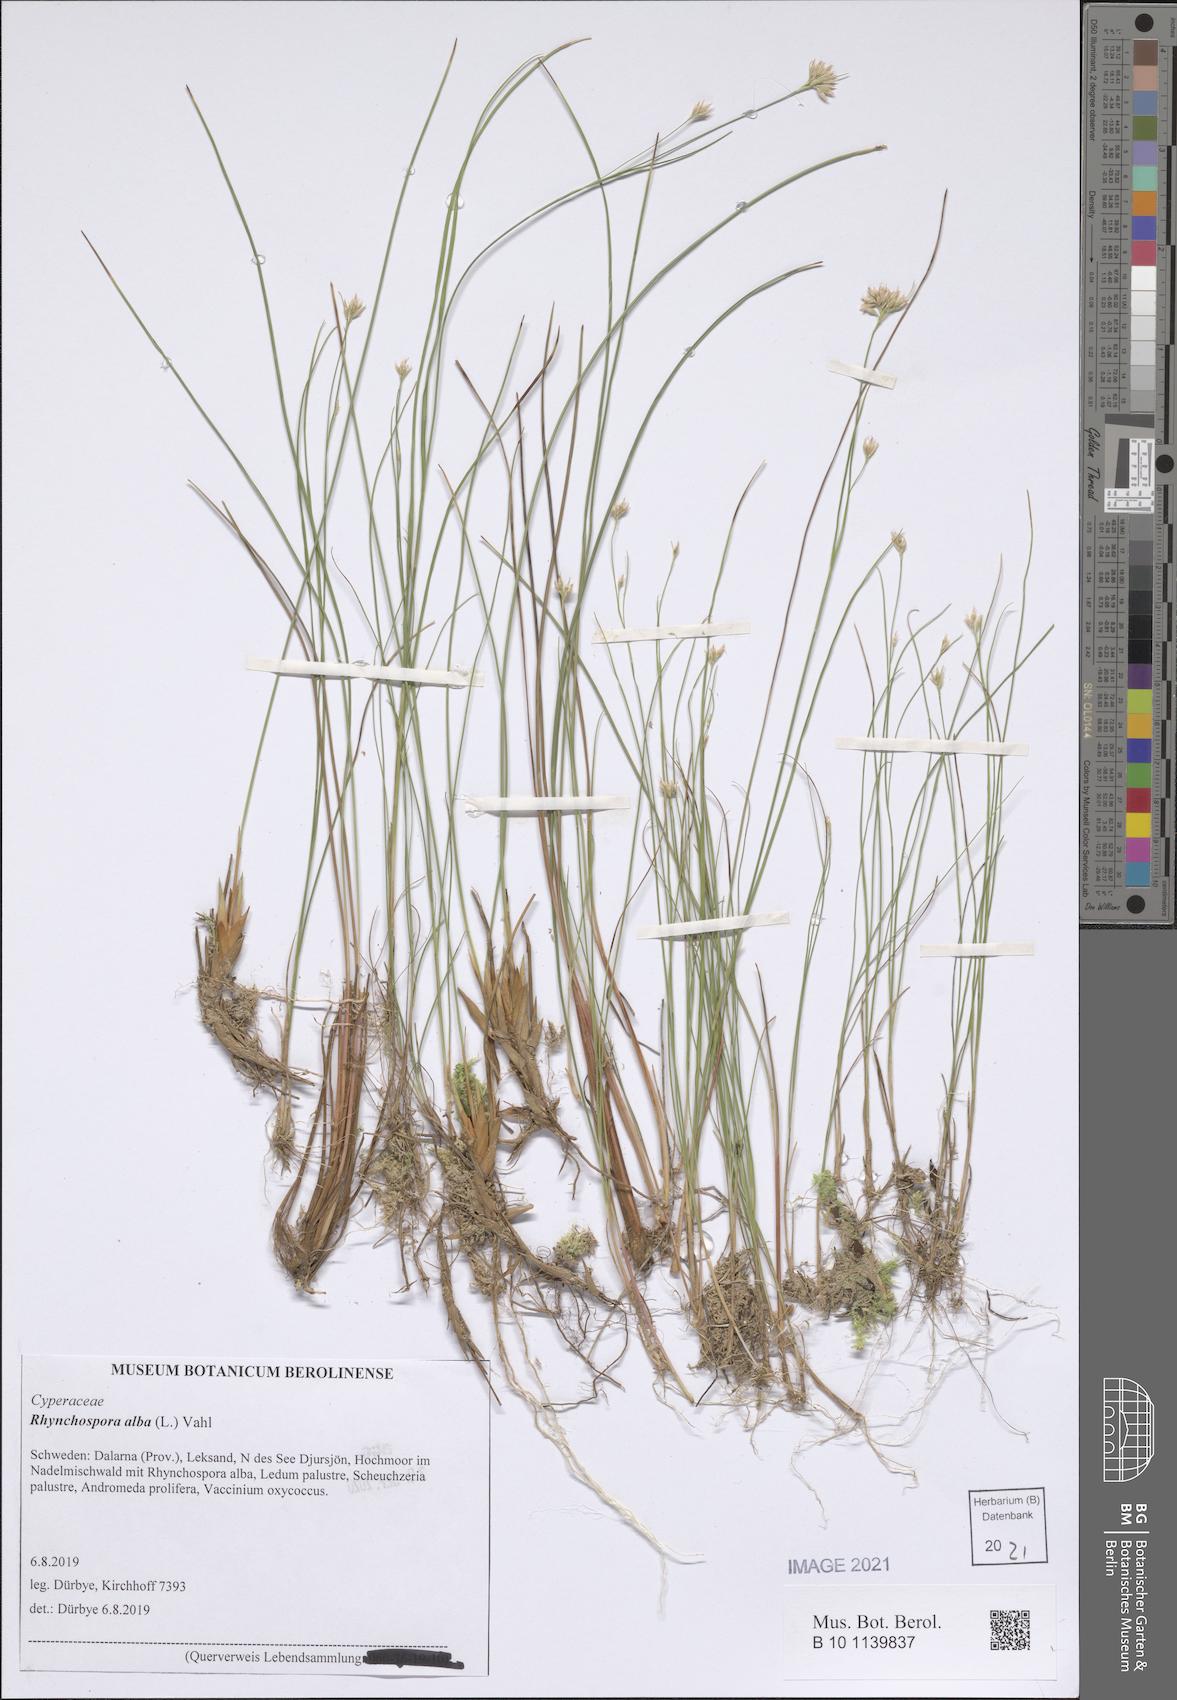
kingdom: Plantae
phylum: Tracheophyta
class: Liliopsida
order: Poales
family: Cyperaceae
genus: Rhynchospora
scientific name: Rhynchospora alba
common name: White beak-sedge
